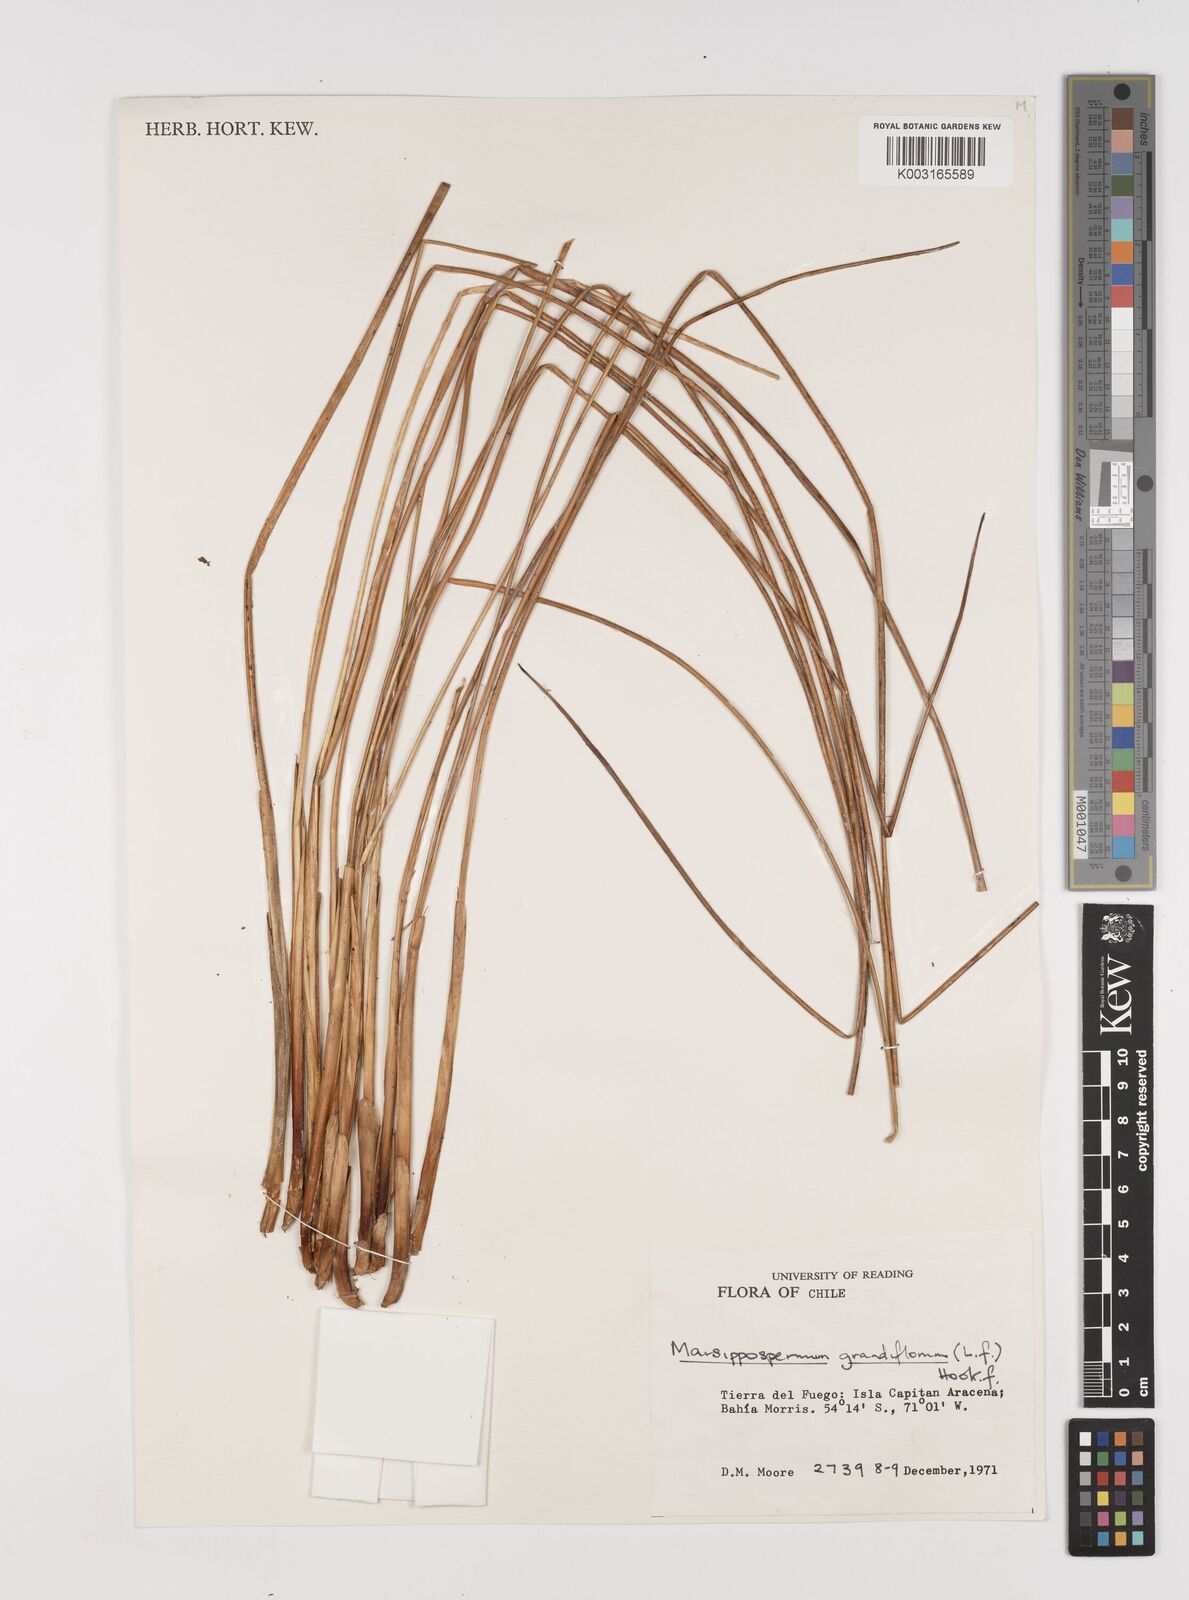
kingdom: Plantae
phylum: Tracheophyta
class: Liliopsida
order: Poales
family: Juncaceae
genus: Marsippospermum
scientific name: Marsippospermum grandiflorum
